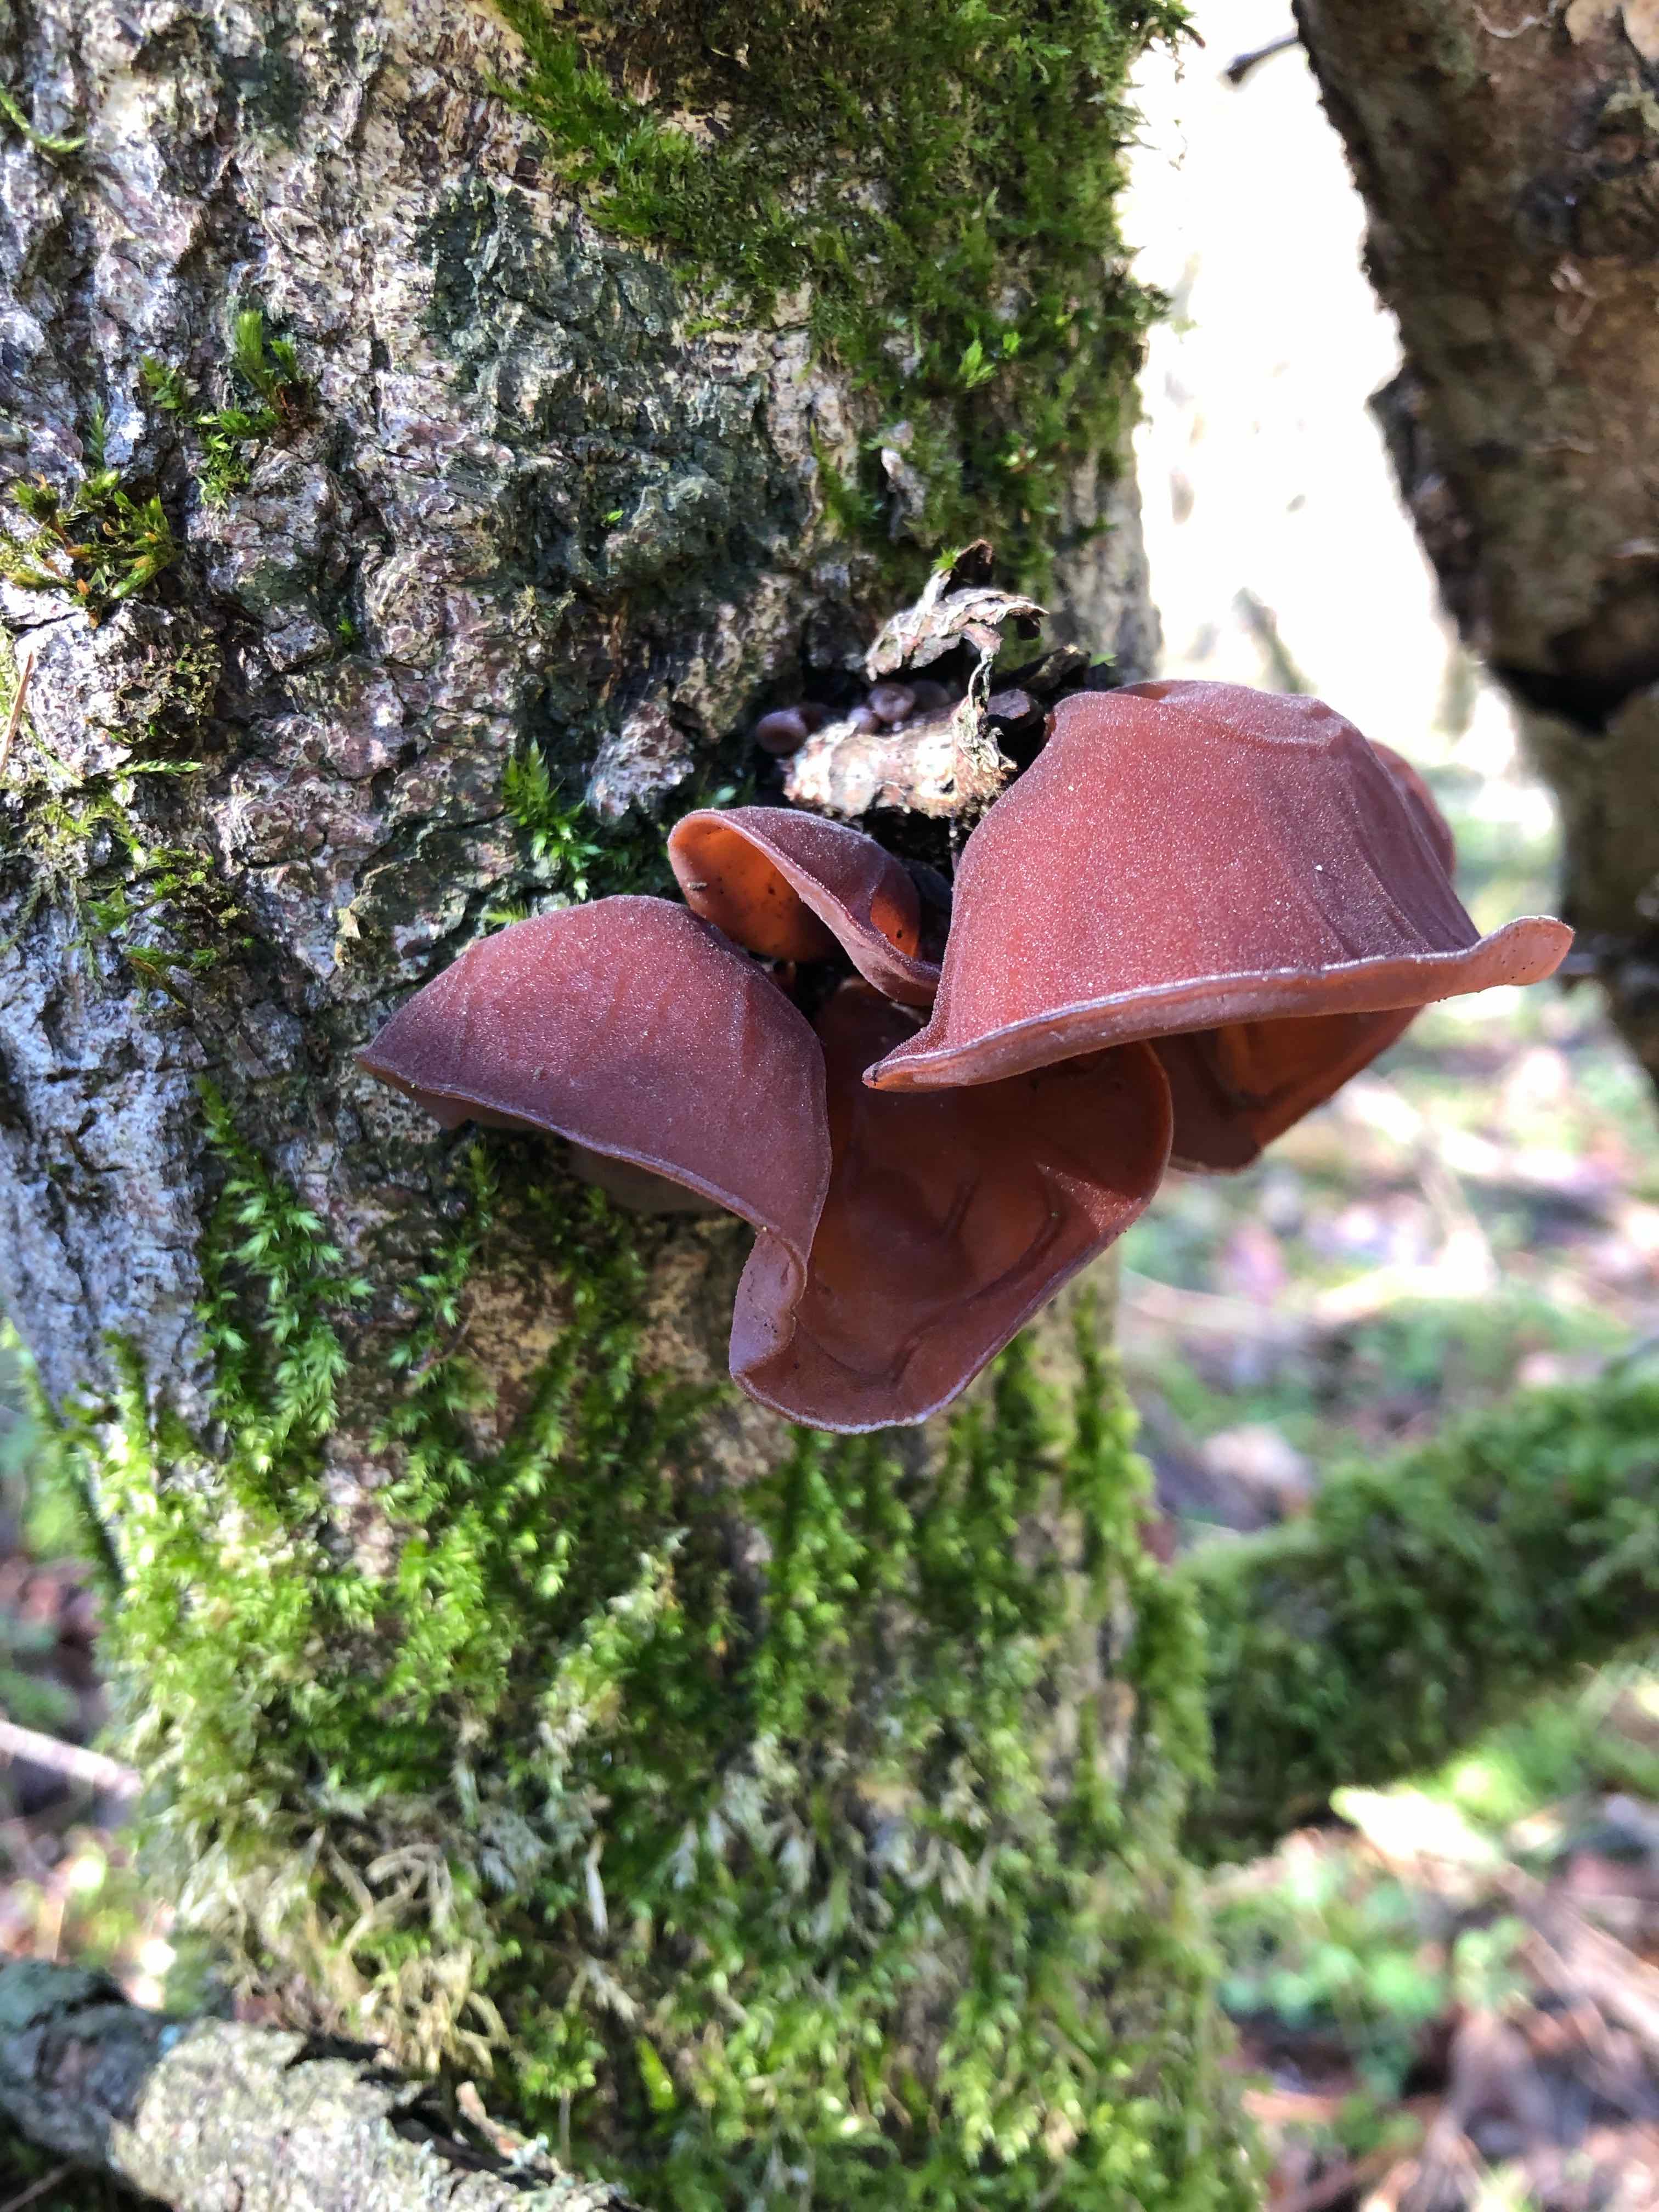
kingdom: Fungi
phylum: Basidiomycota
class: Agaricomycetes
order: Auriculariales
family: Auriculariaceae
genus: Auricularia
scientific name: Auricularia auricula-judae
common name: almindelig judasøre
